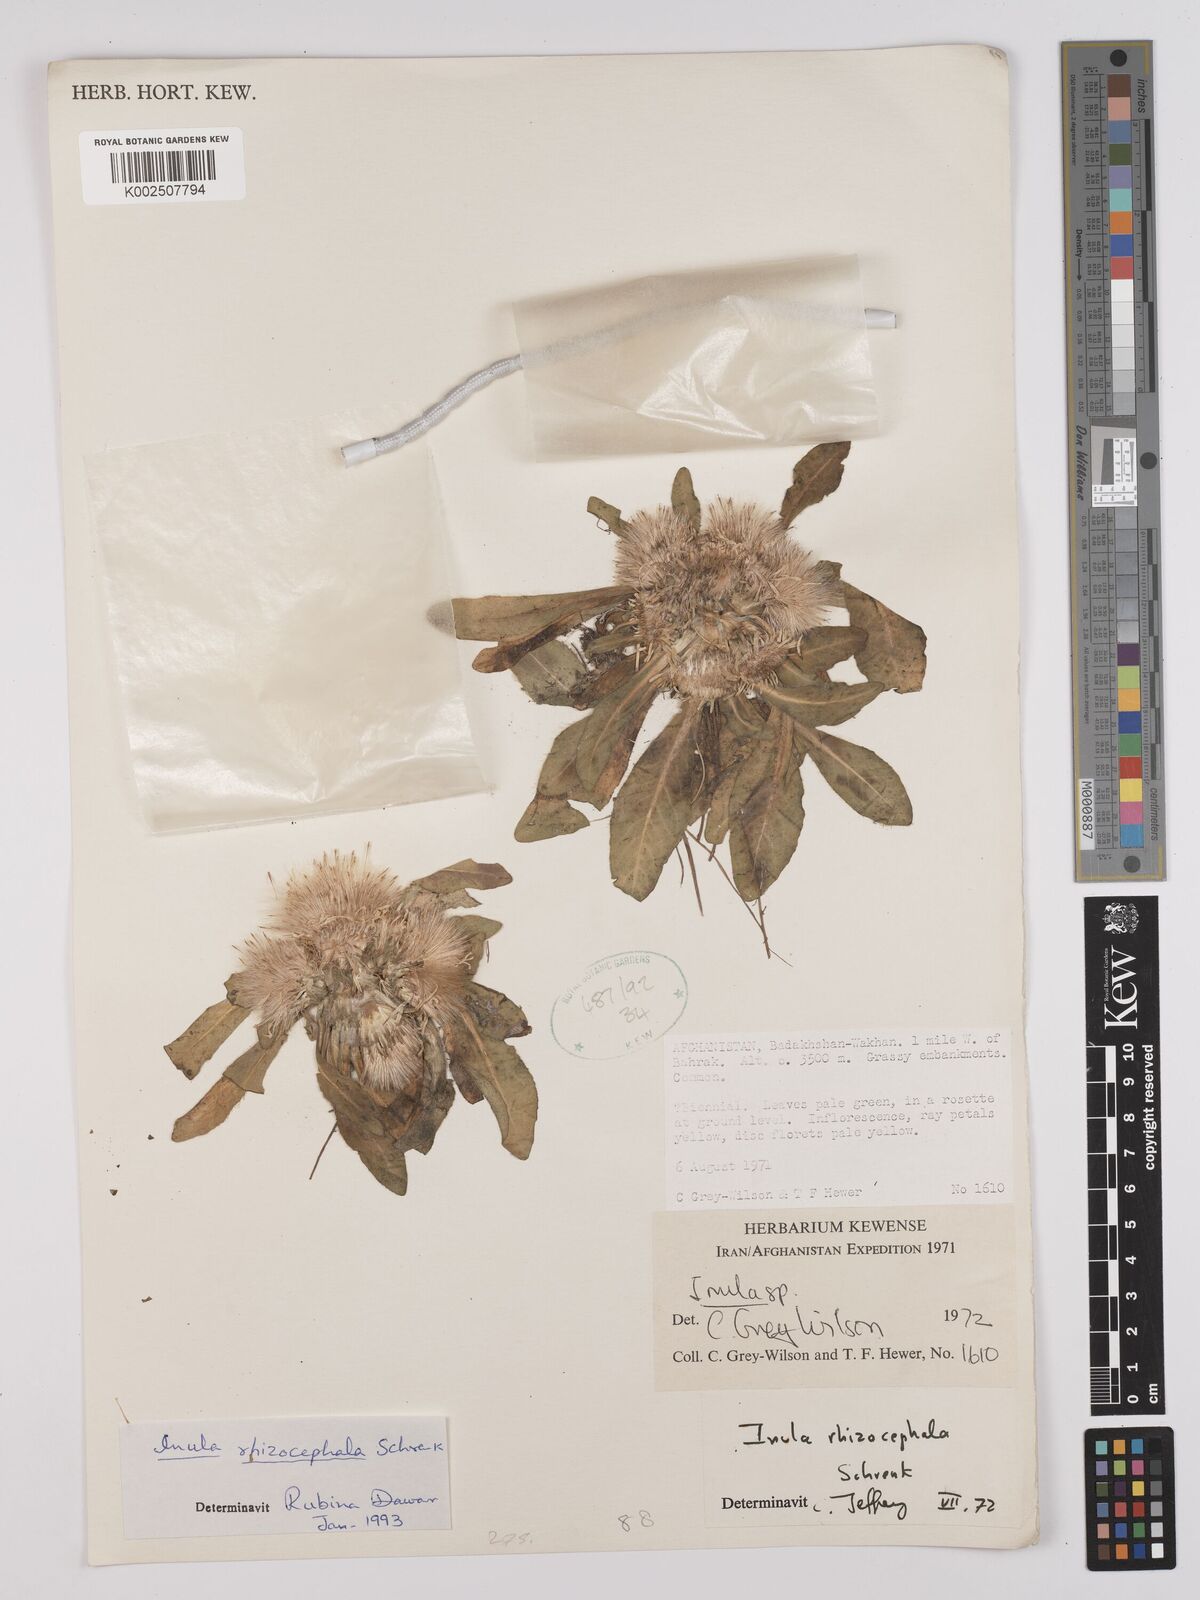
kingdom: Plantae
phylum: Tracheophyta
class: Magnoliopsida
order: Asterales
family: Asteraceae
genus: Inula
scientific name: Inula rhizocephala
